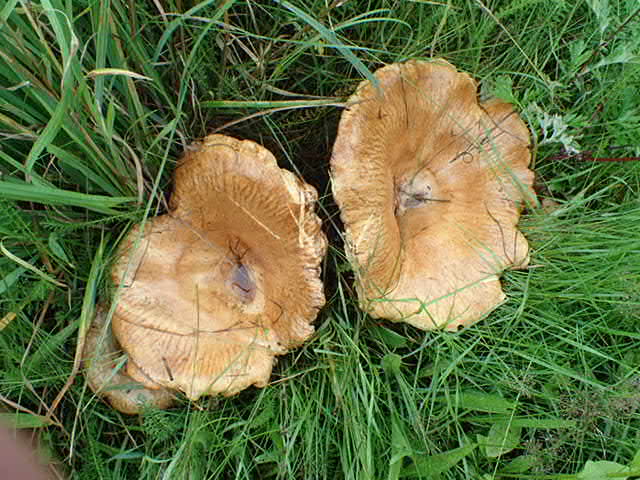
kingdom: Fungi
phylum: Basidiomycota
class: Agaricomycetes
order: Boletales
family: Paxillaceae
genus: Paxillus
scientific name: Paxillus
